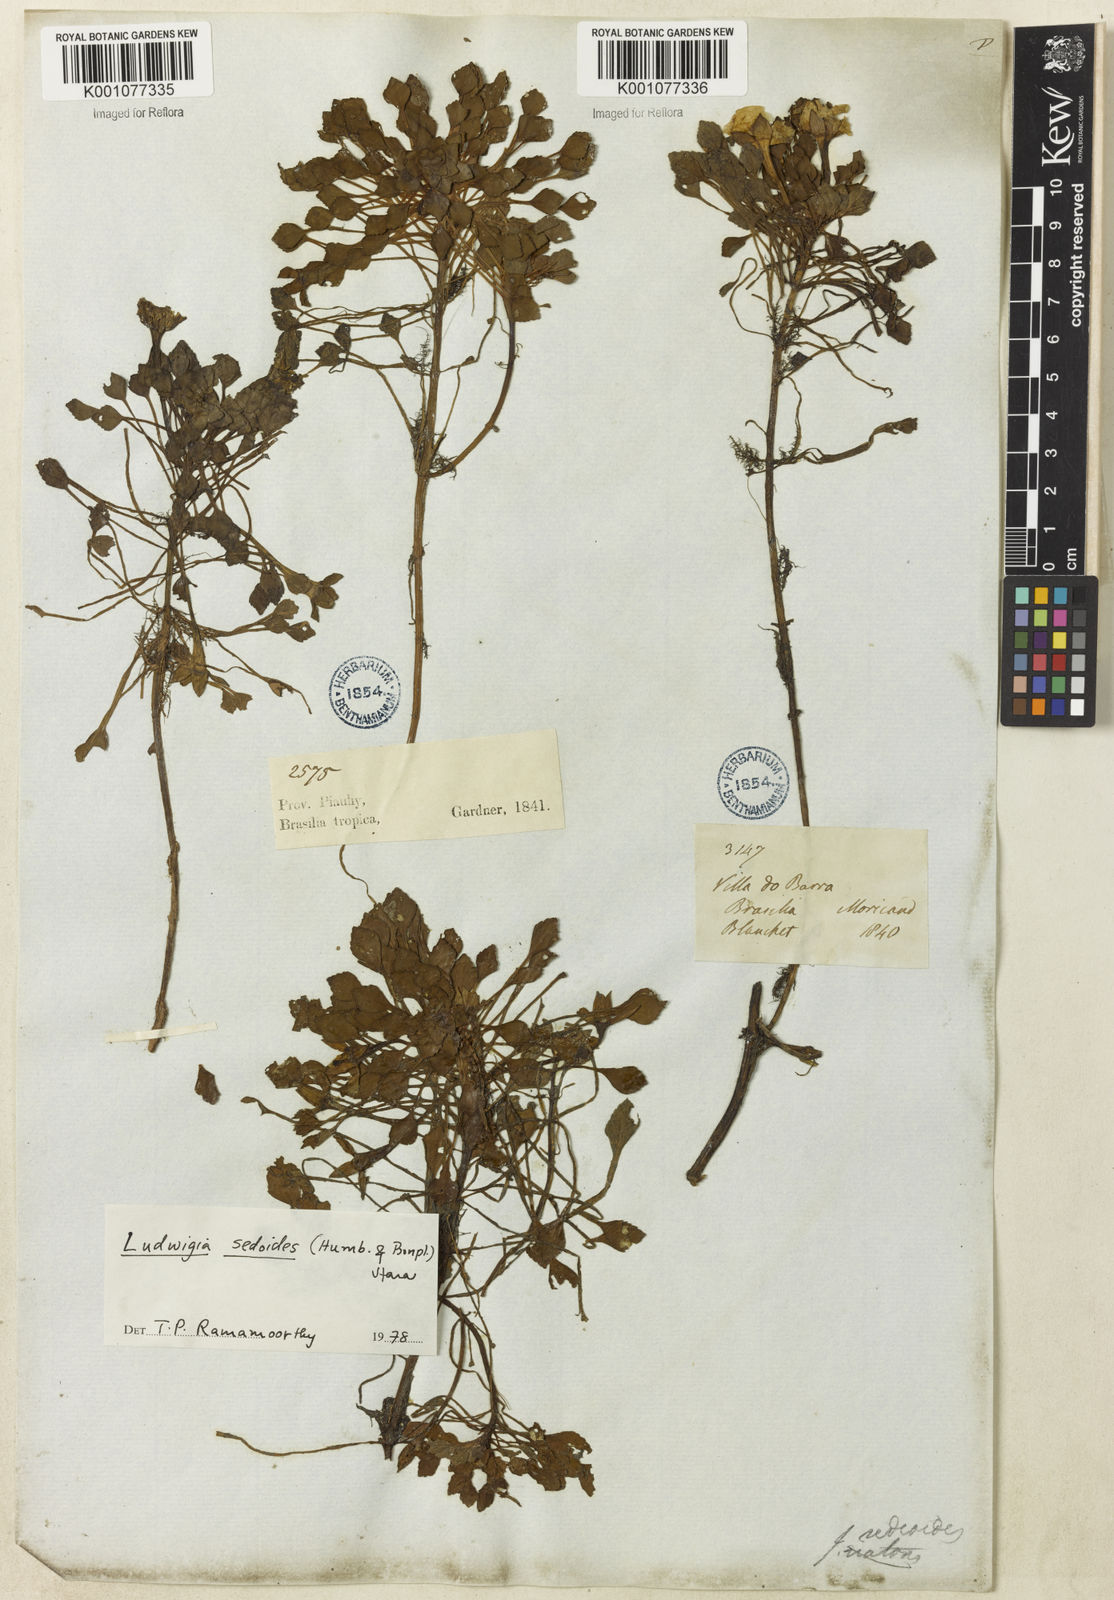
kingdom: Plantae
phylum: Tracheophyta
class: Magnoliopsida
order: Myrtales
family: Onagraceae
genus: Ludwigia
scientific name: Ludwigia sedoides
